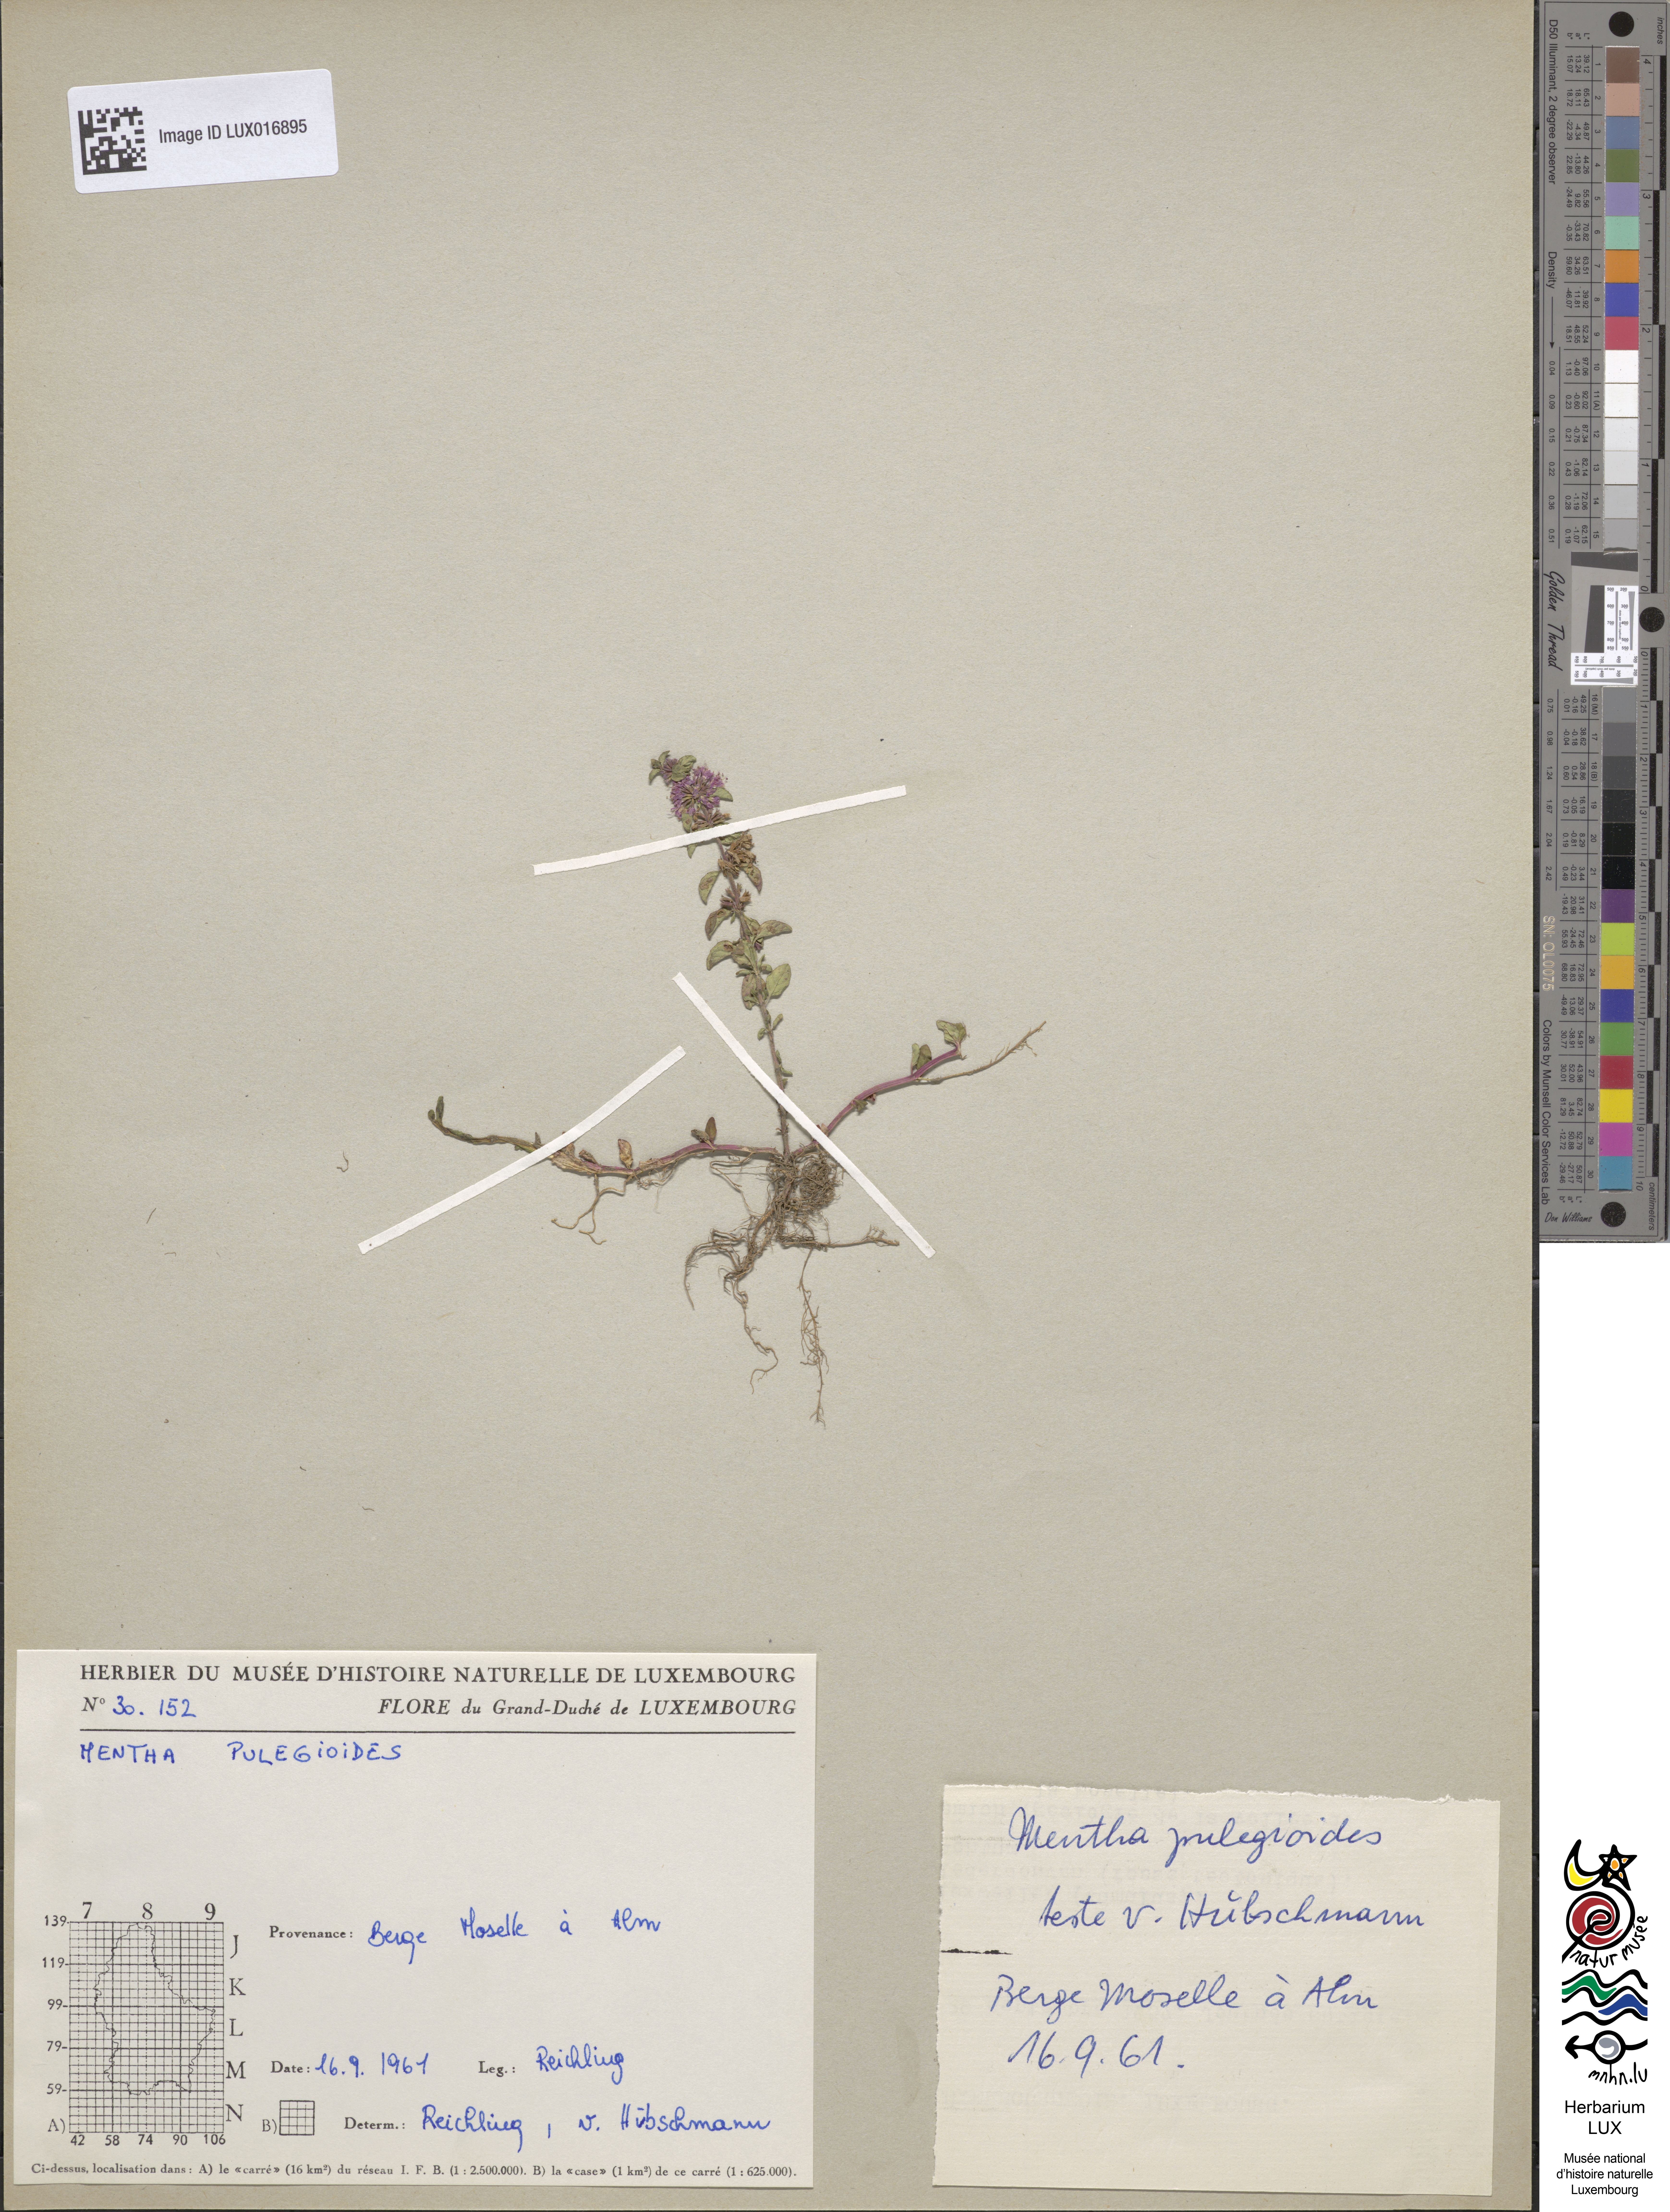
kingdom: Plantae
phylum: Tracheophyta
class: Magnoliopsida
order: Lamiales
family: Lamiaceae
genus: Mentha
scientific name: Mentha pulegium
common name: Pennyroyal
